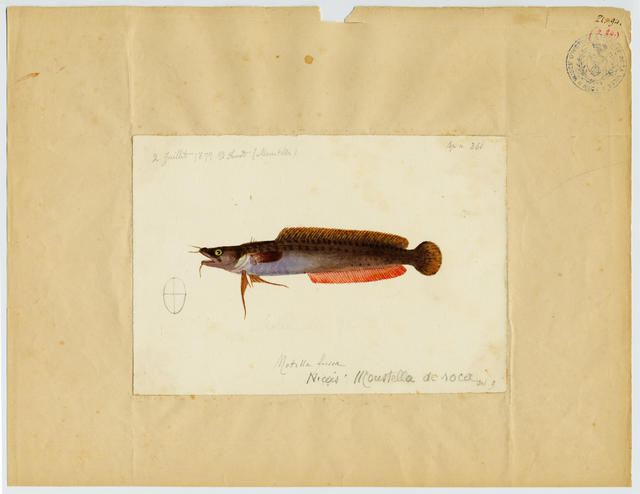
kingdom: Animalia
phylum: Chordata
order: Gadiformes
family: Lotidae
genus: Gaidropsarus
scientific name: Gaidropsarus mediterraneus
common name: Shore rockling
